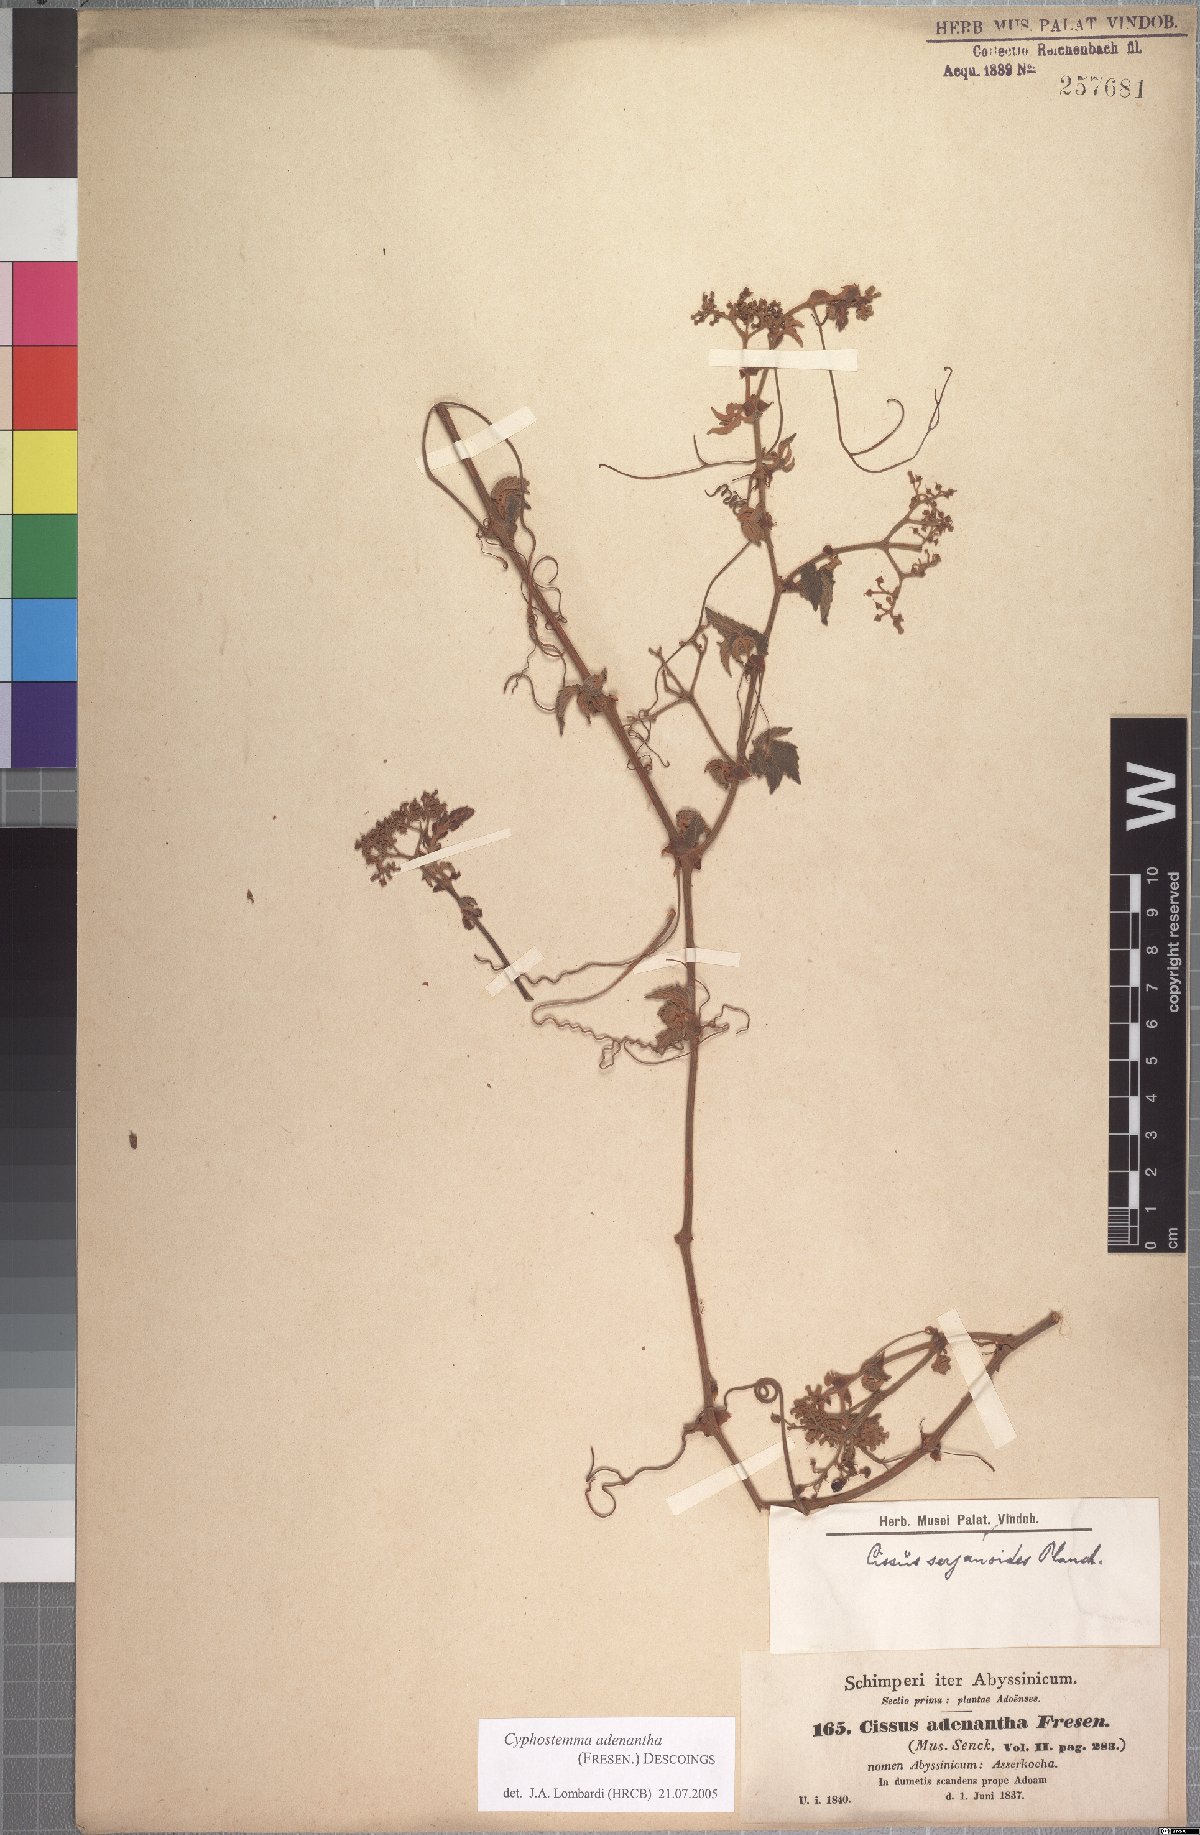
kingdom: Plantae
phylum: Tracheophyta
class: Magnoliopsida
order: Vitales
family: Vitaceae
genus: Cyphostemma
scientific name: Cyphostemma adenanthum
